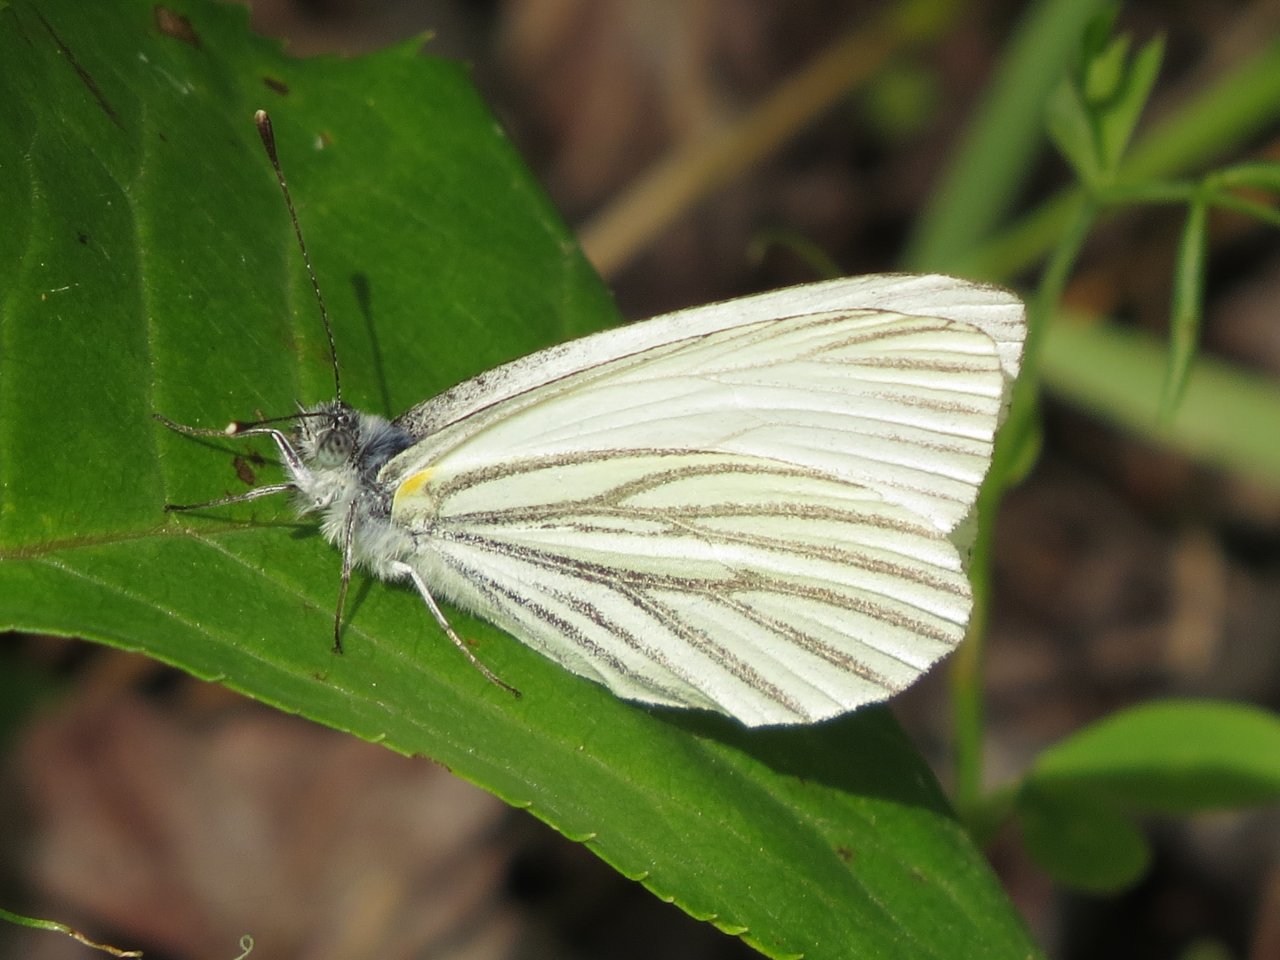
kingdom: Animalia
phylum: Arthropoda
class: Insecta
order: Lepidoptera
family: Pieridae
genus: Pieris
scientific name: Pieris oleracea
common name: Mustard White
